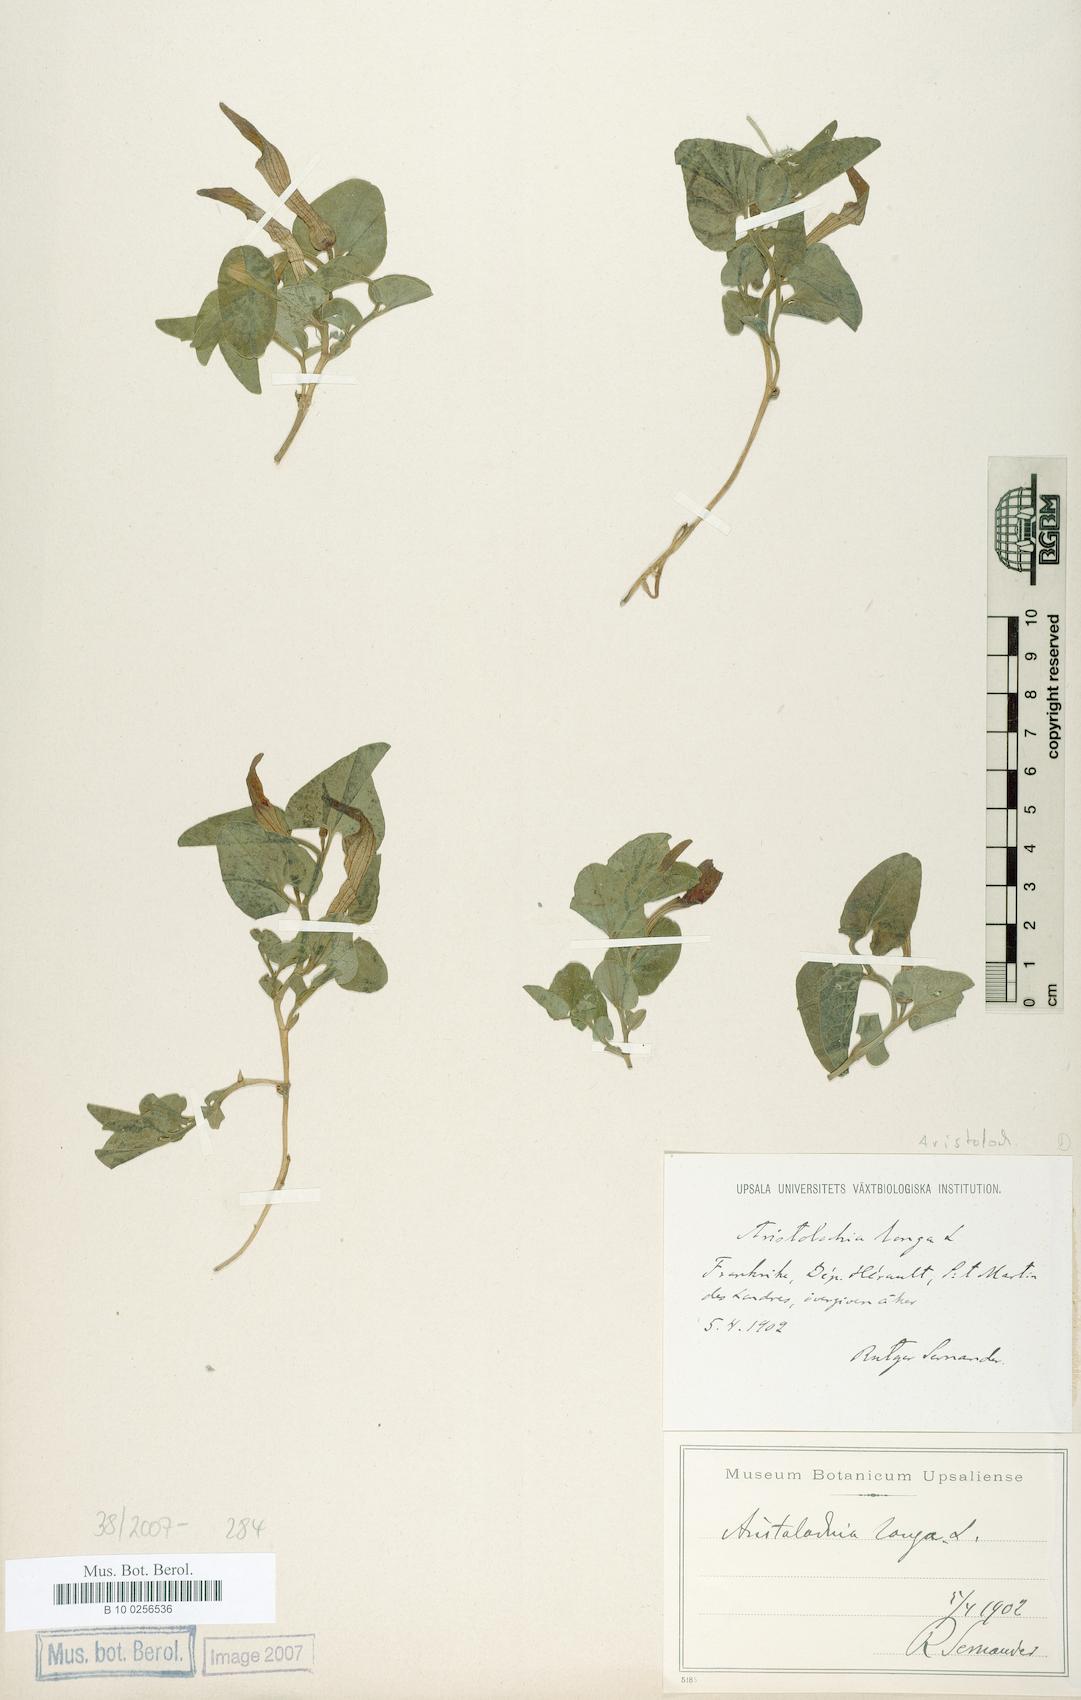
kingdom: Plantae
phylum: Tracheophyta
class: Magnoliopsida
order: Piperales
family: Aristolochiaceae
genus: Aristolochia
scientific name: Aristolochia fontanesii
